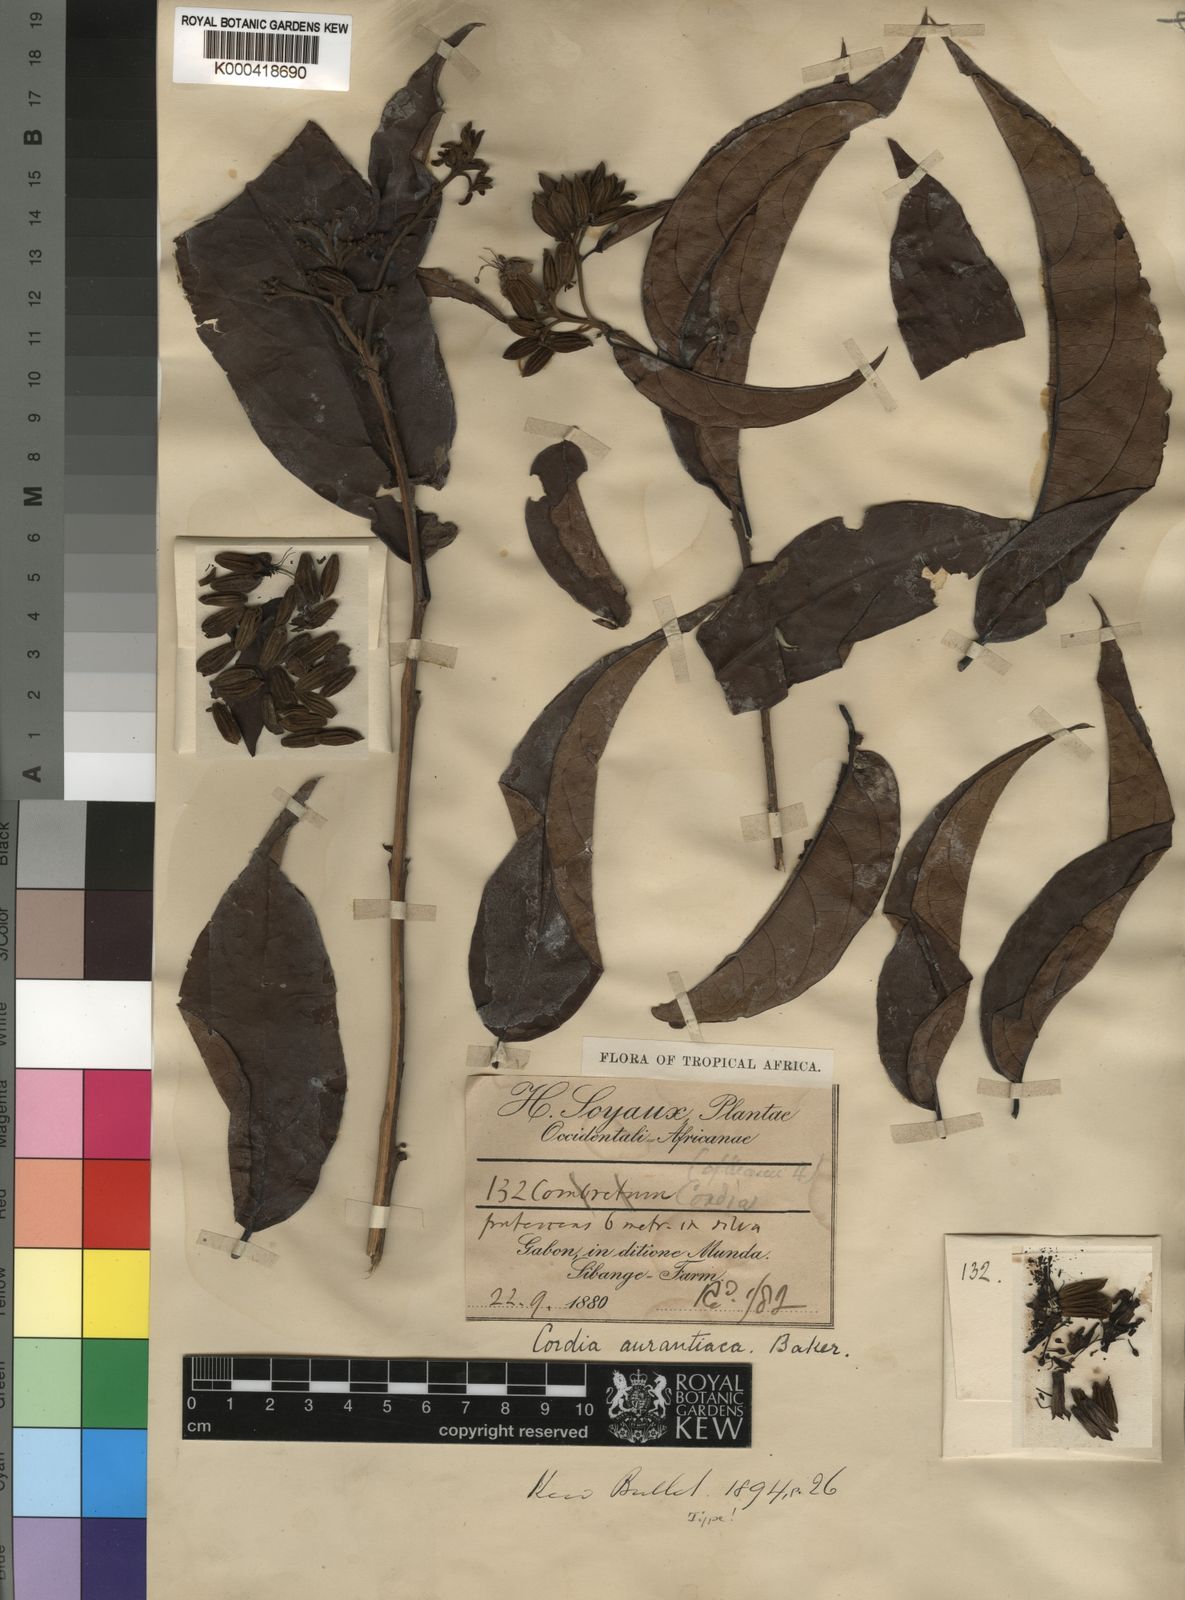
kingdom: Plantae
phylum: Tracheophyta
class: Magnoliopsida
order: Boraginales
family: Cordiaceae
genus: Cordia
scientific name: Cordia aurantiaca
